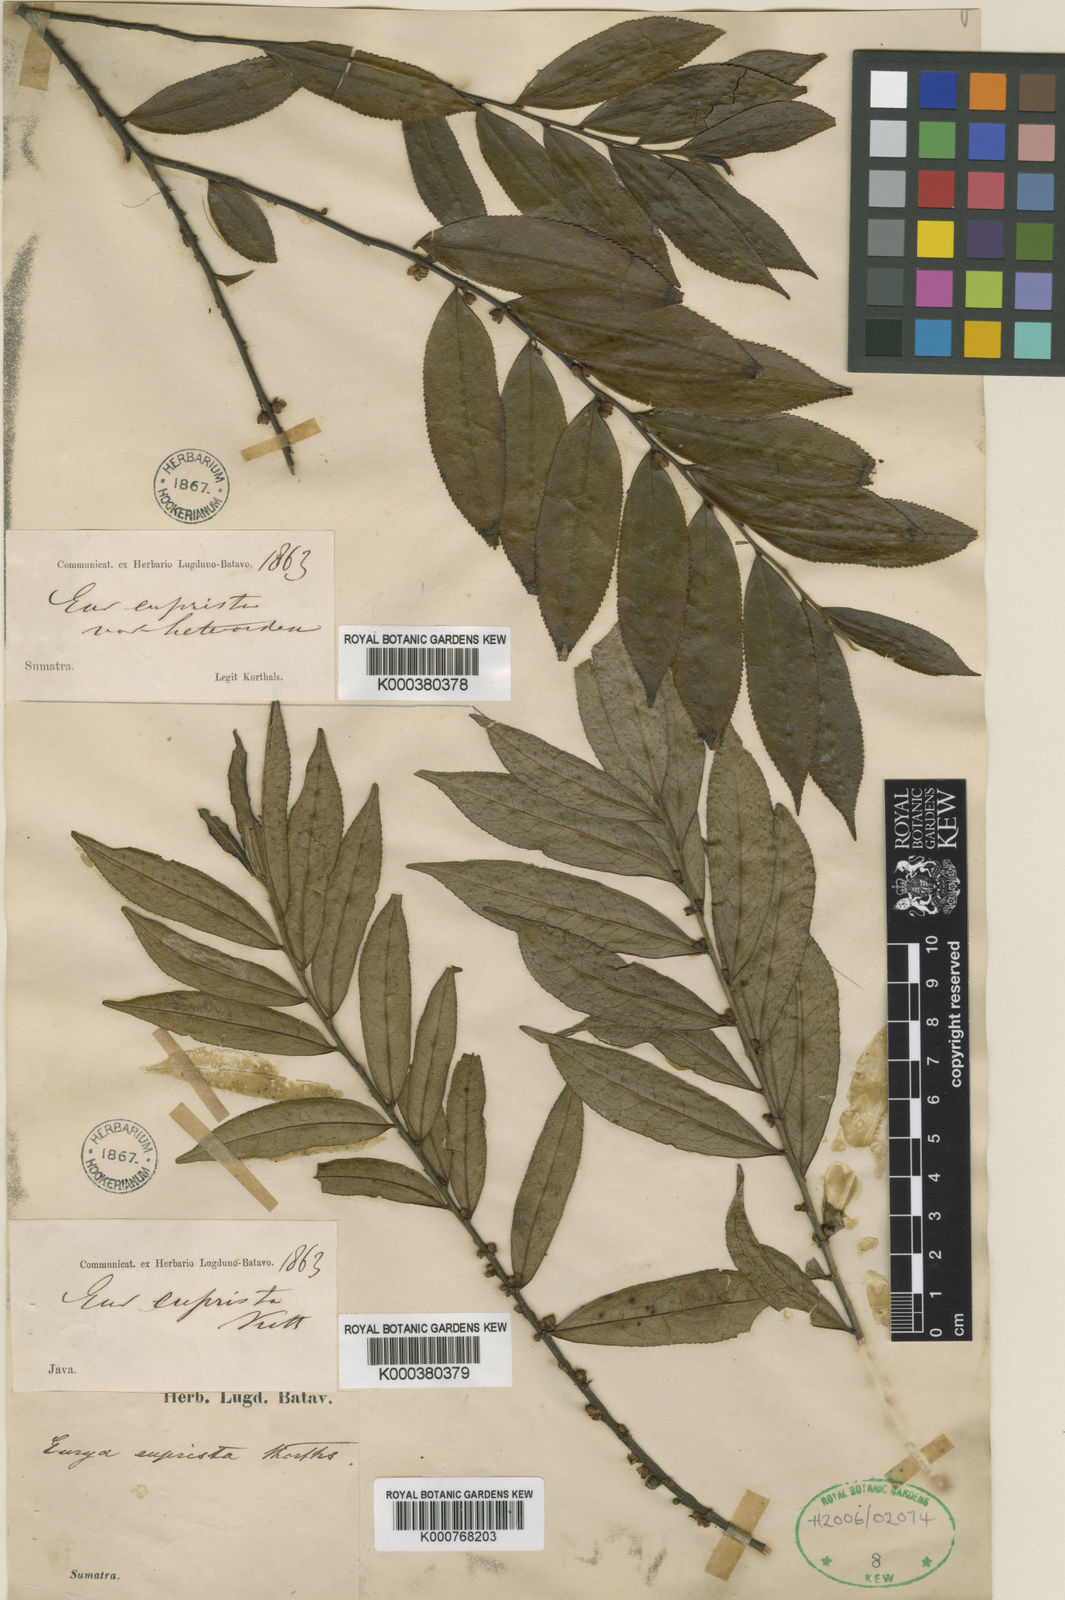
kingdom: Plantae
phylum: Tracheophyta
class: Magnoliopsida
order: Ericales
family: Pentaphylacaceae
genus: Eurya
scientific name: Eurya acuminata
